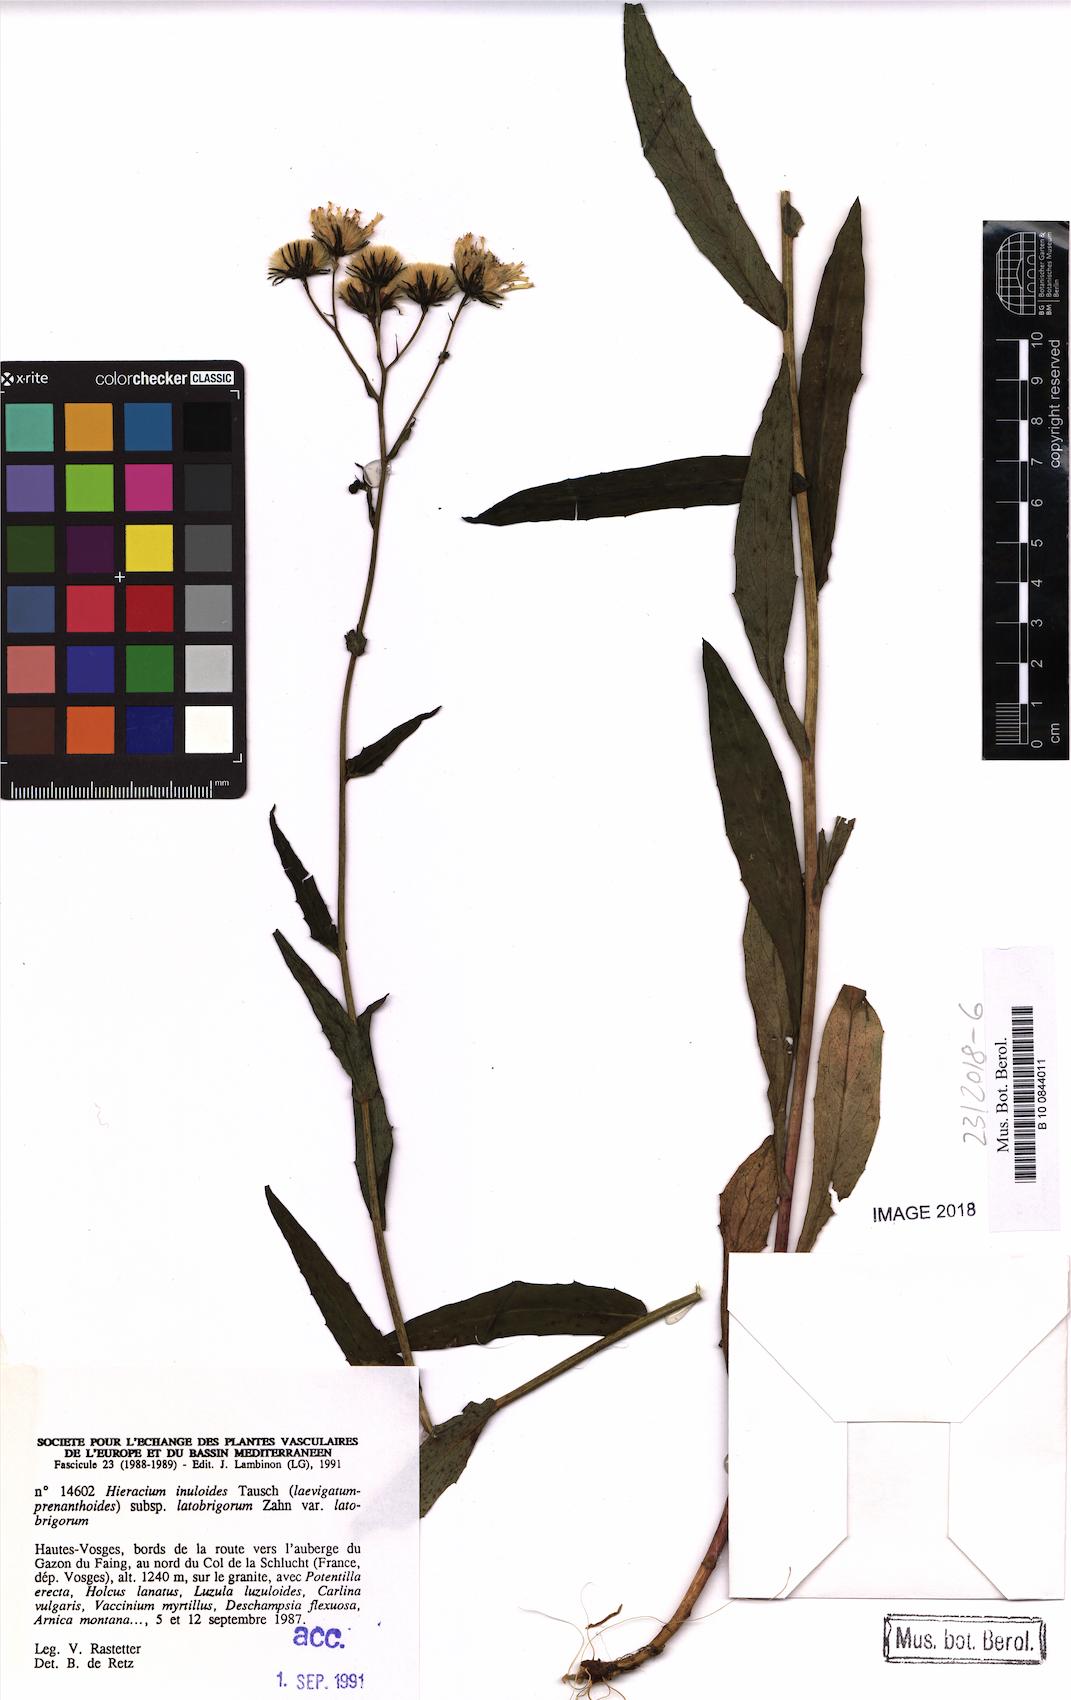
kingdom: Plantae
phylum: Tracheophyta
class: Magnoliopsida
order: Asterales
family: Asteraceae
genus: Hieracium
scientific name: Hieracium inuloides
